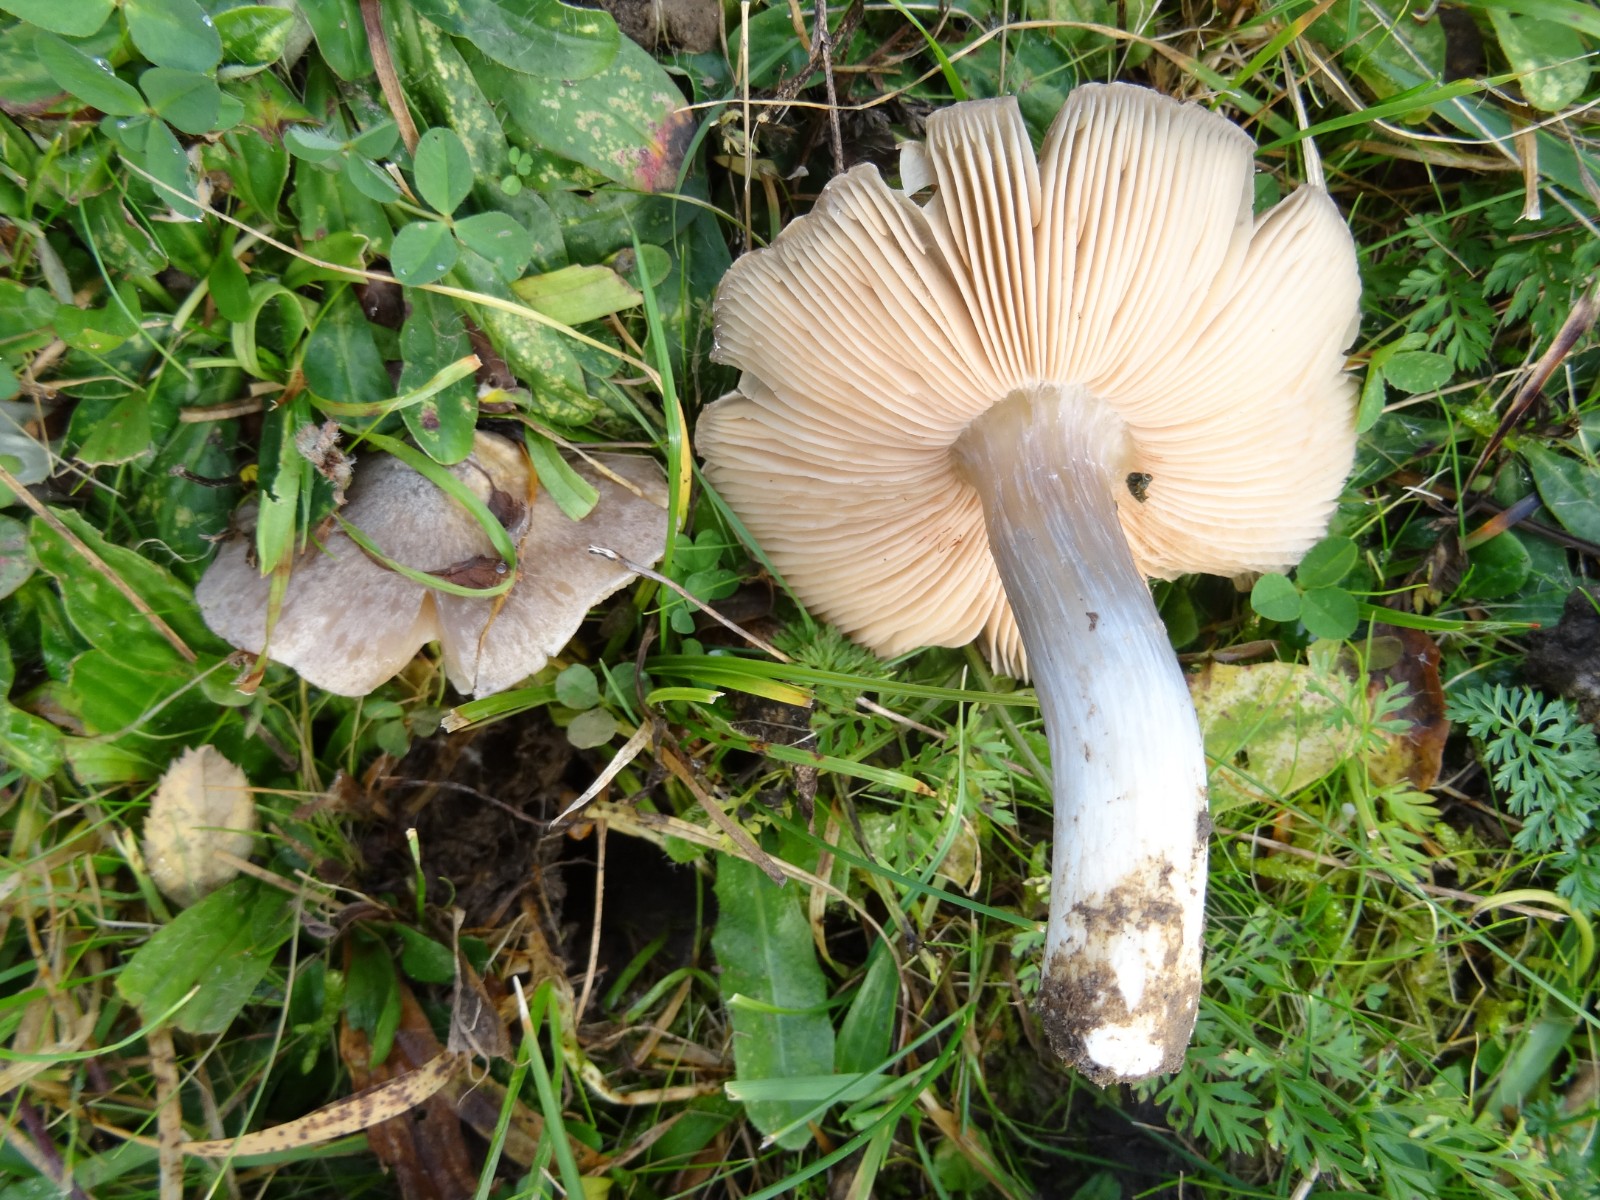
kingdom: Fungi
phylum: Basidiomycota
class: Agaricomycetes
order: Agaricales
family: Entolomataceae
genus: Entoloma
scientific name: Entoloma prunuloides
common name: mel-rødblad
